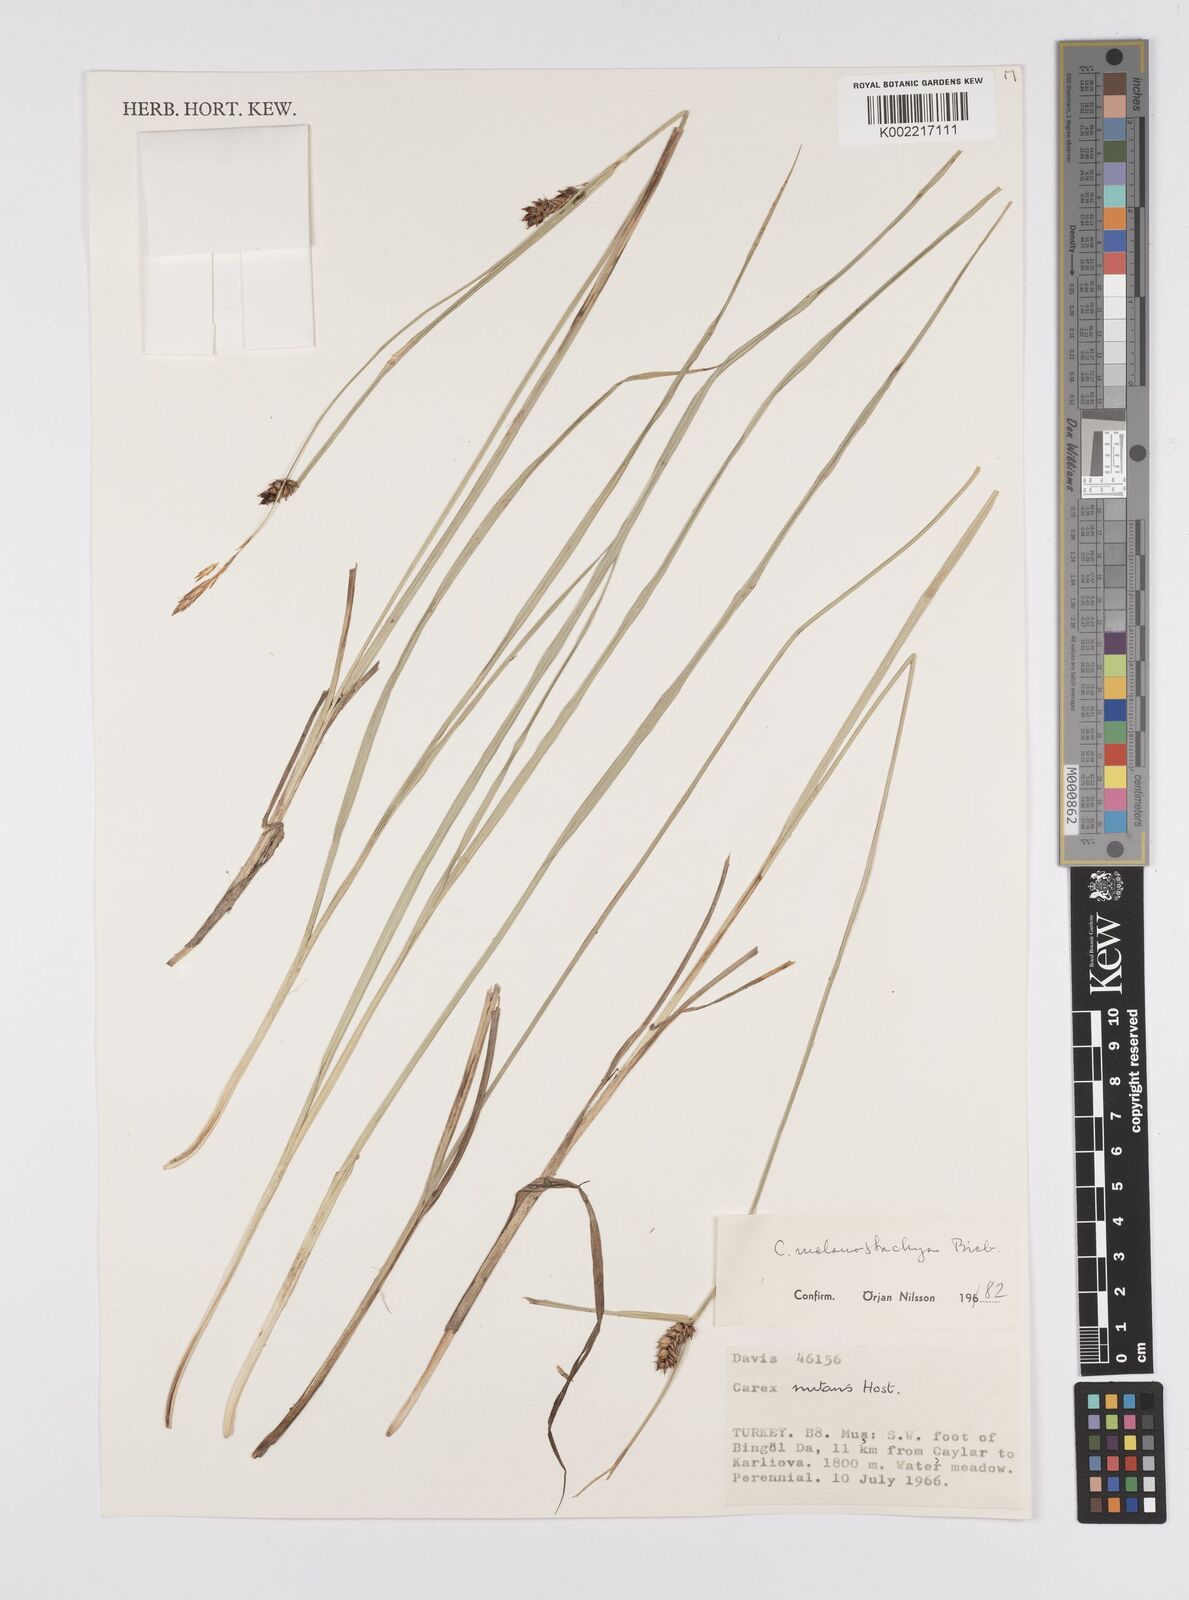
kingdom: Plantae
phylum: Tracheophyta
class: Liliopsida
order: Poales
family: Cyperaceae
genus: Carex
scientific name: Carex melanostachya
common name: Black-spiked sedge
